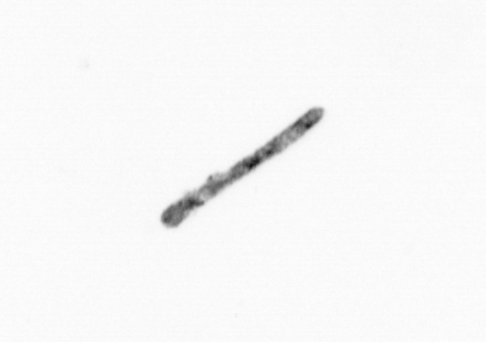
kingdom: Chromista
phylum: Ochrophyta
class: Bacillariophyceae
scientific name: Bacillariophyceae
